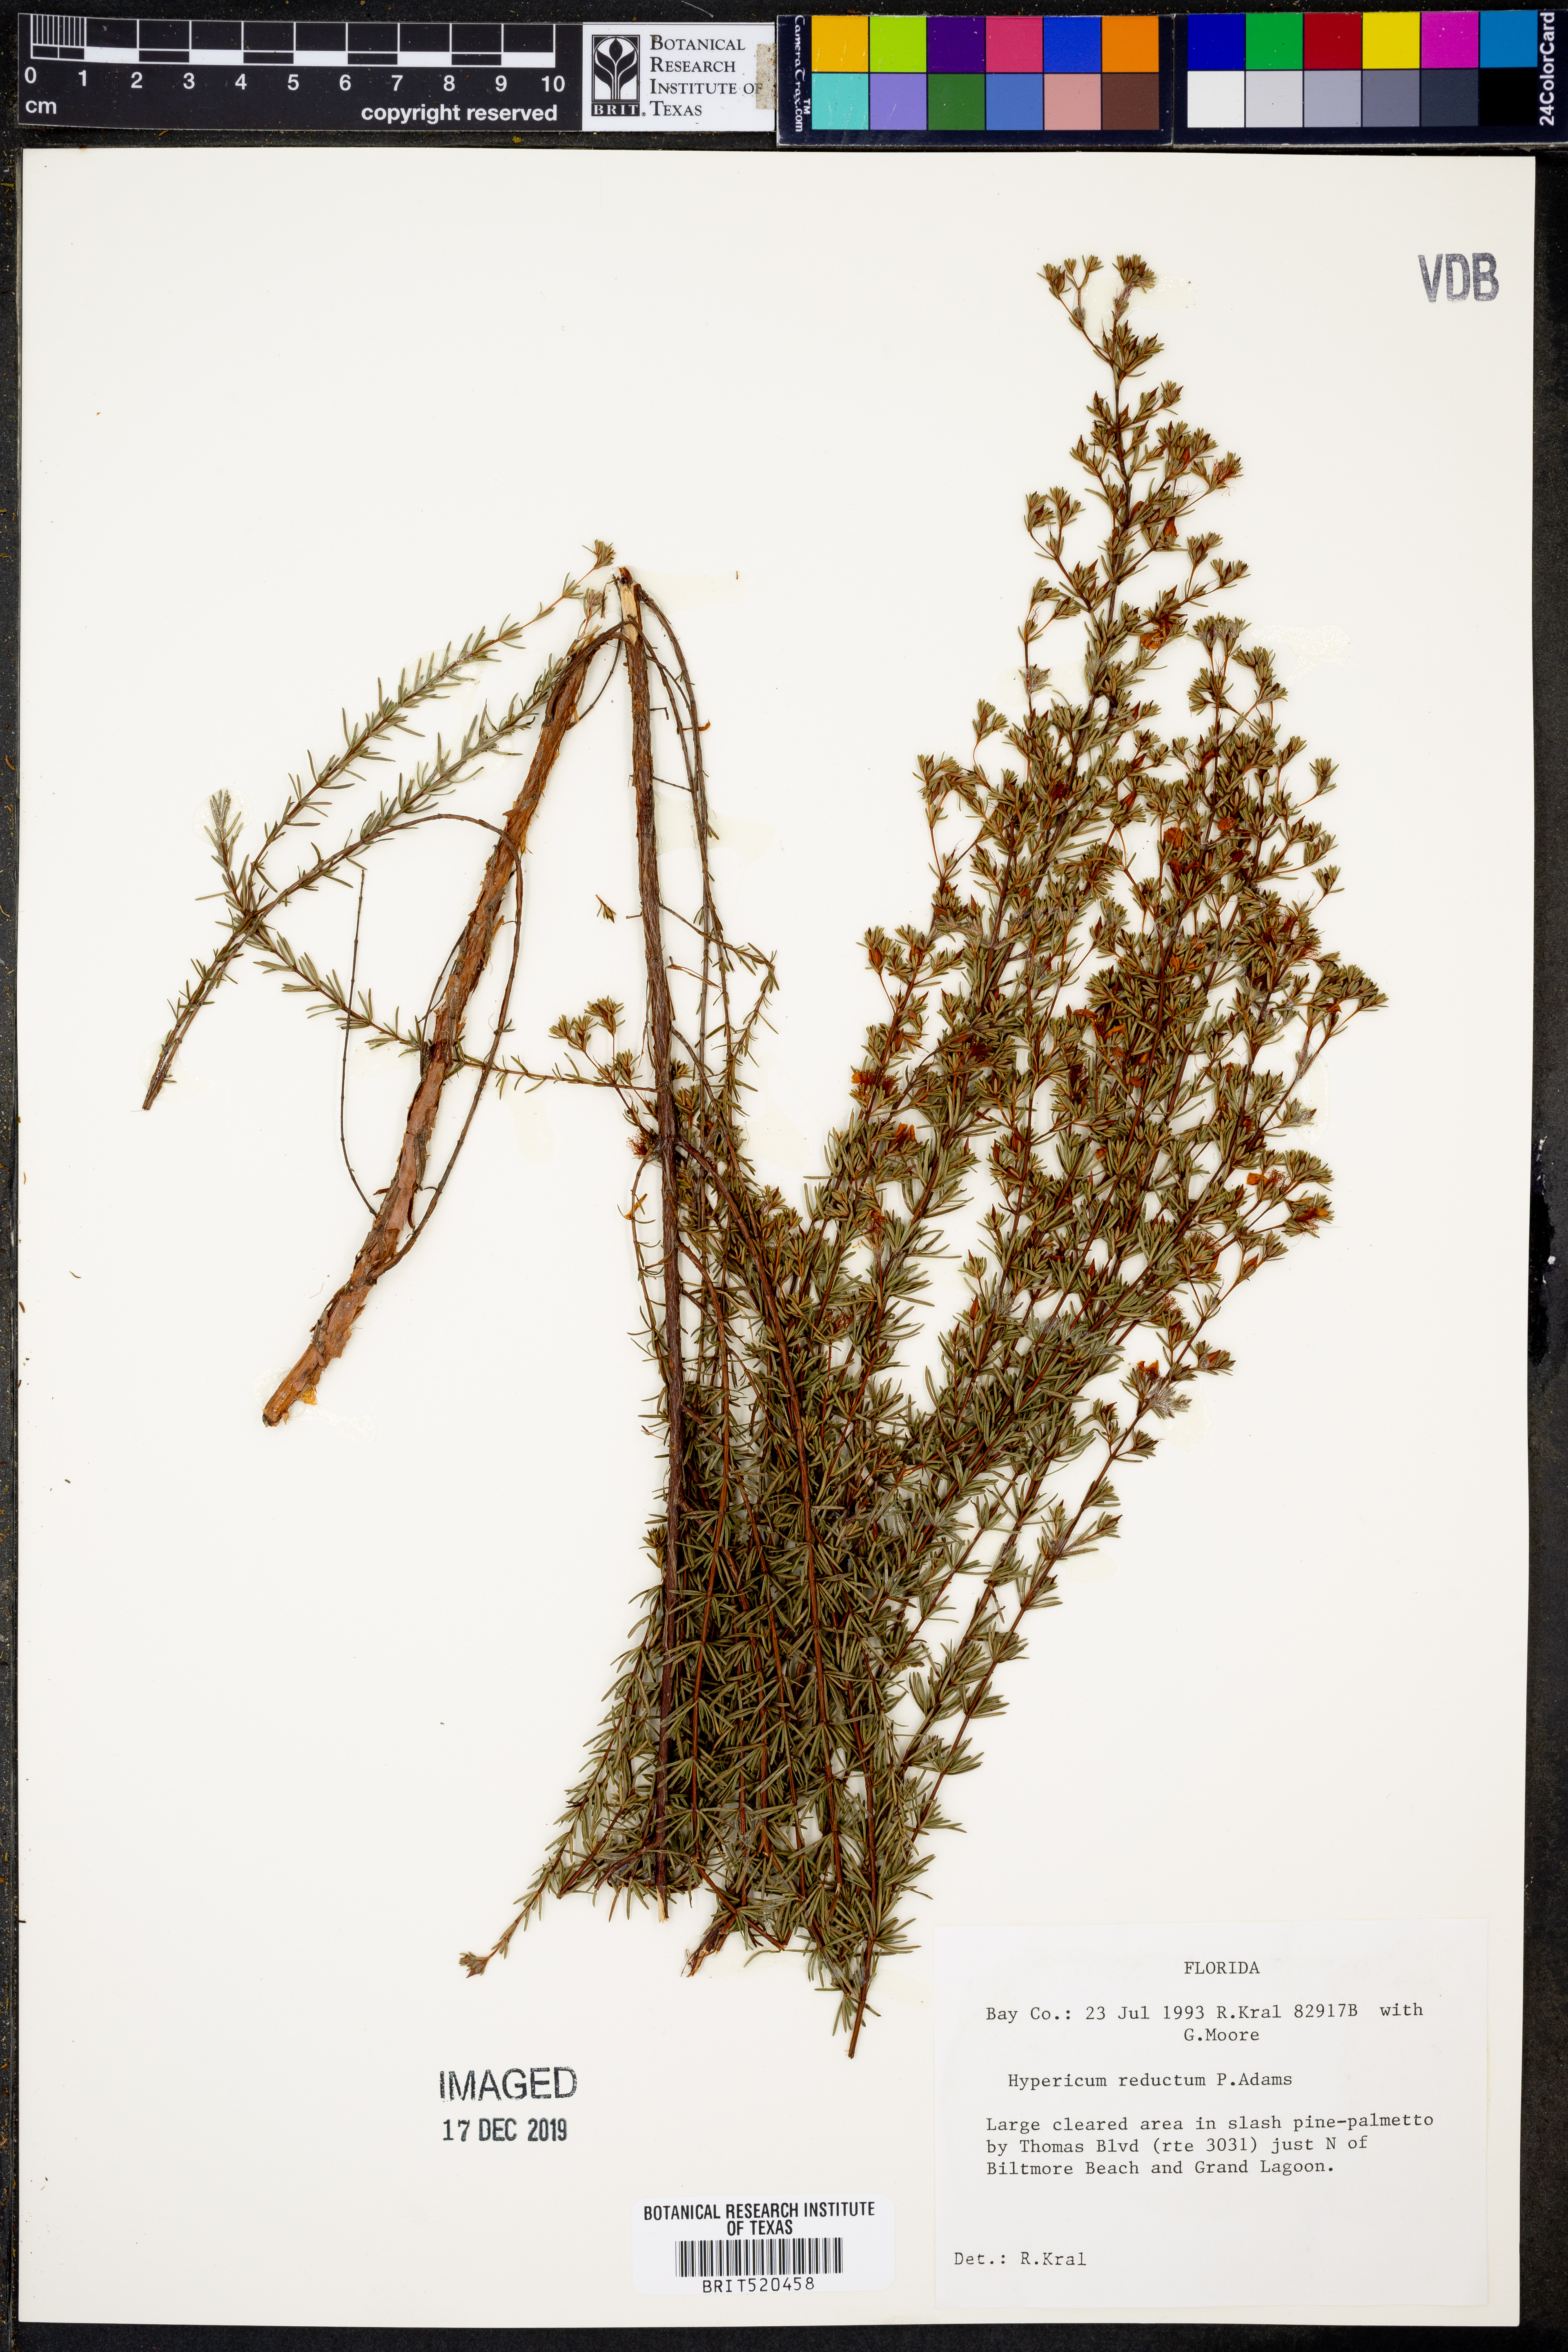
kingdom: Plantae
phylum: Tracheophyta
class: Magnoliopsida
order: Malpighiales
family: Hypericaceae
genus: Hypericum
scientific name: Hypericum tenuifolium
